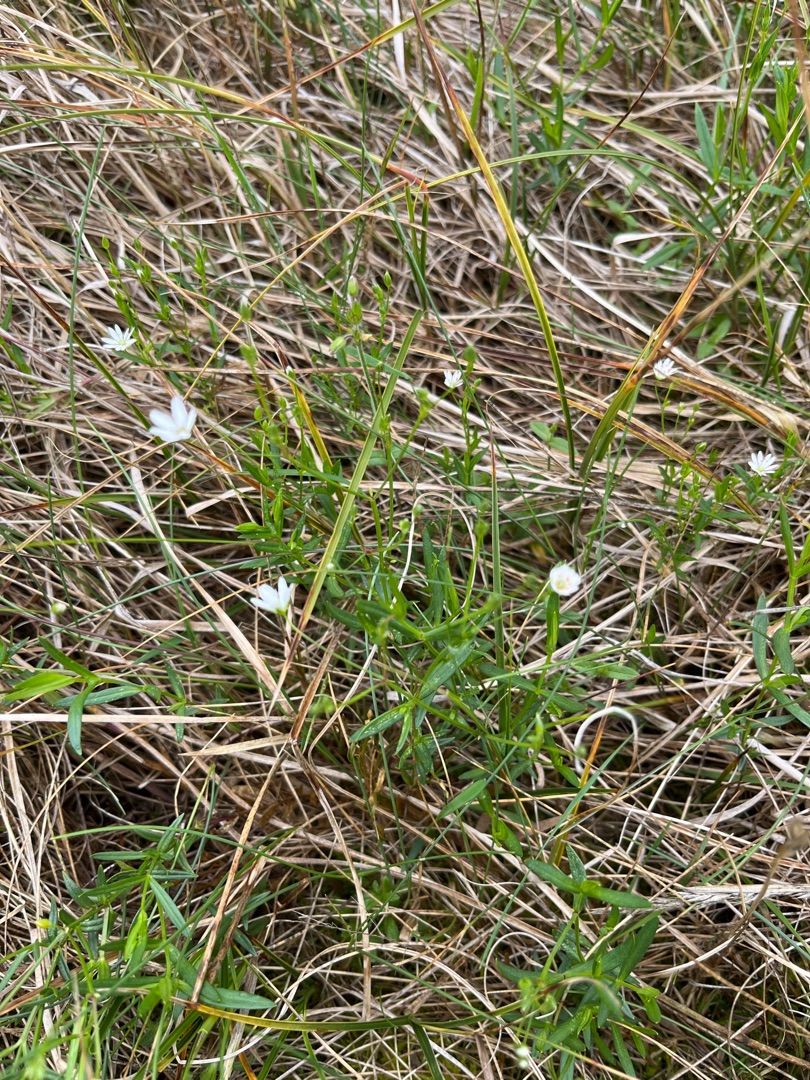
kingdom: Plantae
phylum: Tracheophyta
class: Magnoliopsida
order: Caryophyllales
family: Caryophyllaceae
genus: Stellaria
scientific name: Stellaria
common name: Fladstjerneslægten
